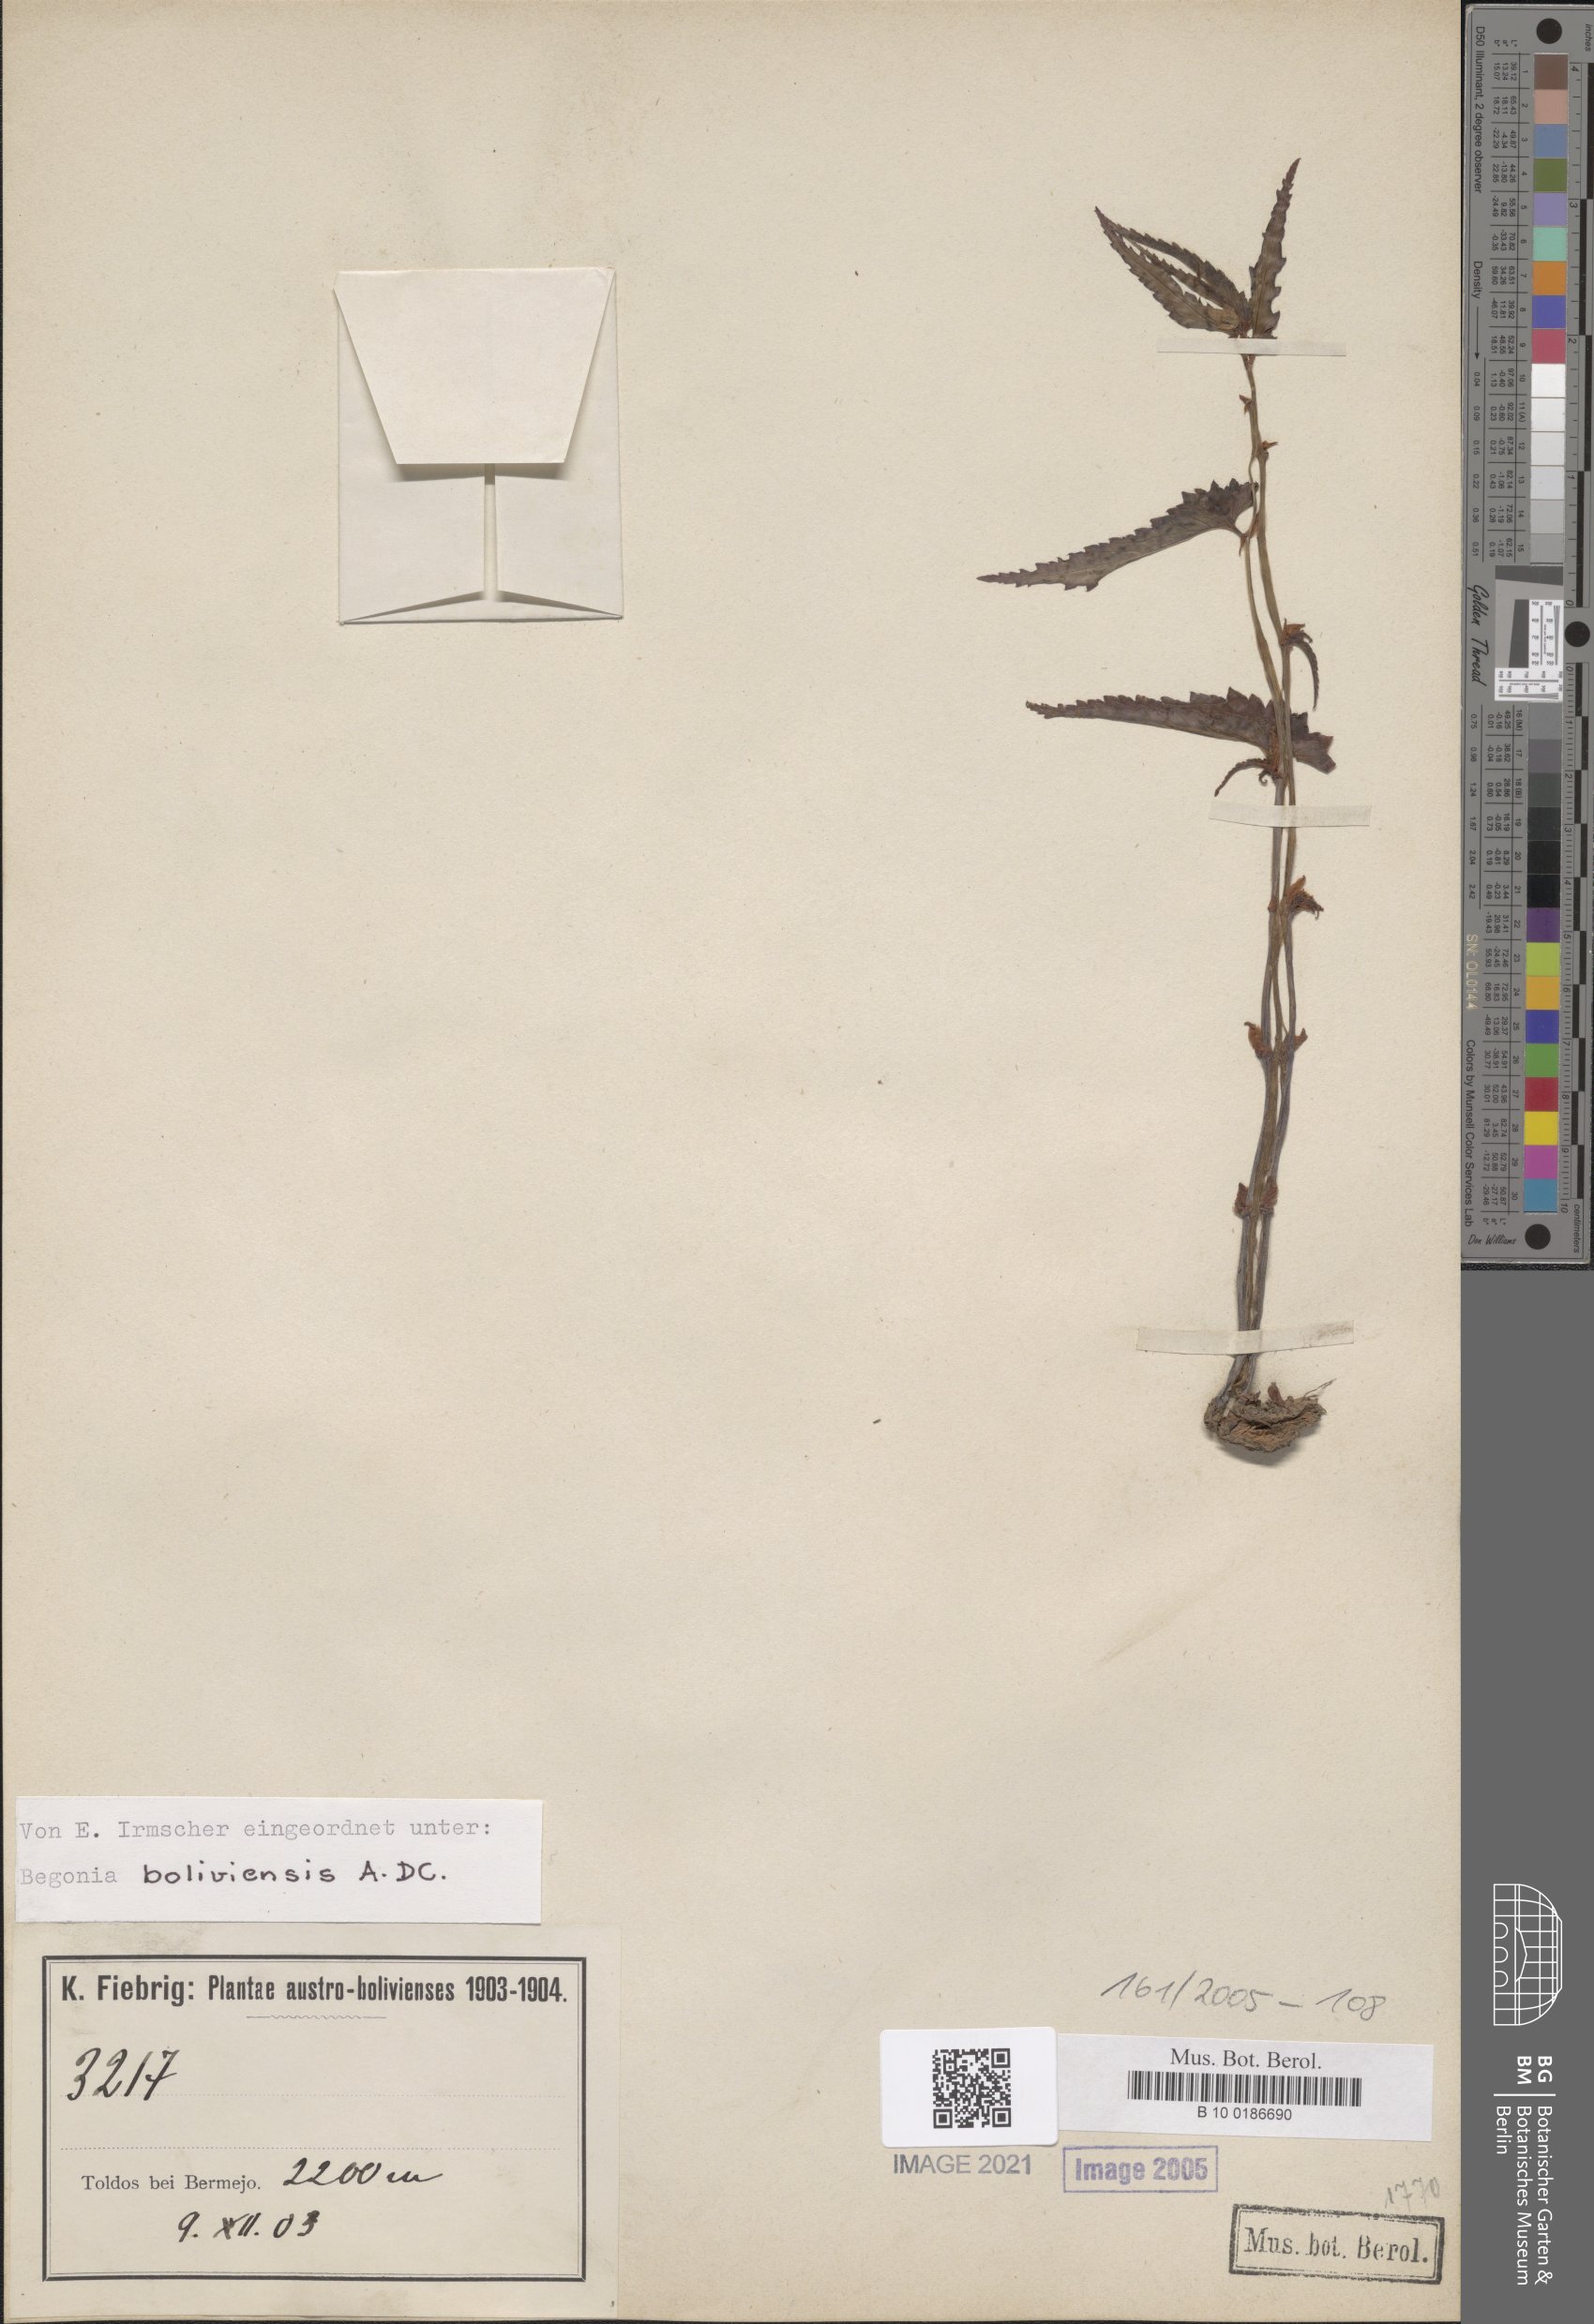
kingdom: Plantae
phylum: Tracheophyta
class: Magnoliopsida
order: Cucurbitales
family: Begoniaceae
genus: Begonia
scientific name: Begonia boliviensis
